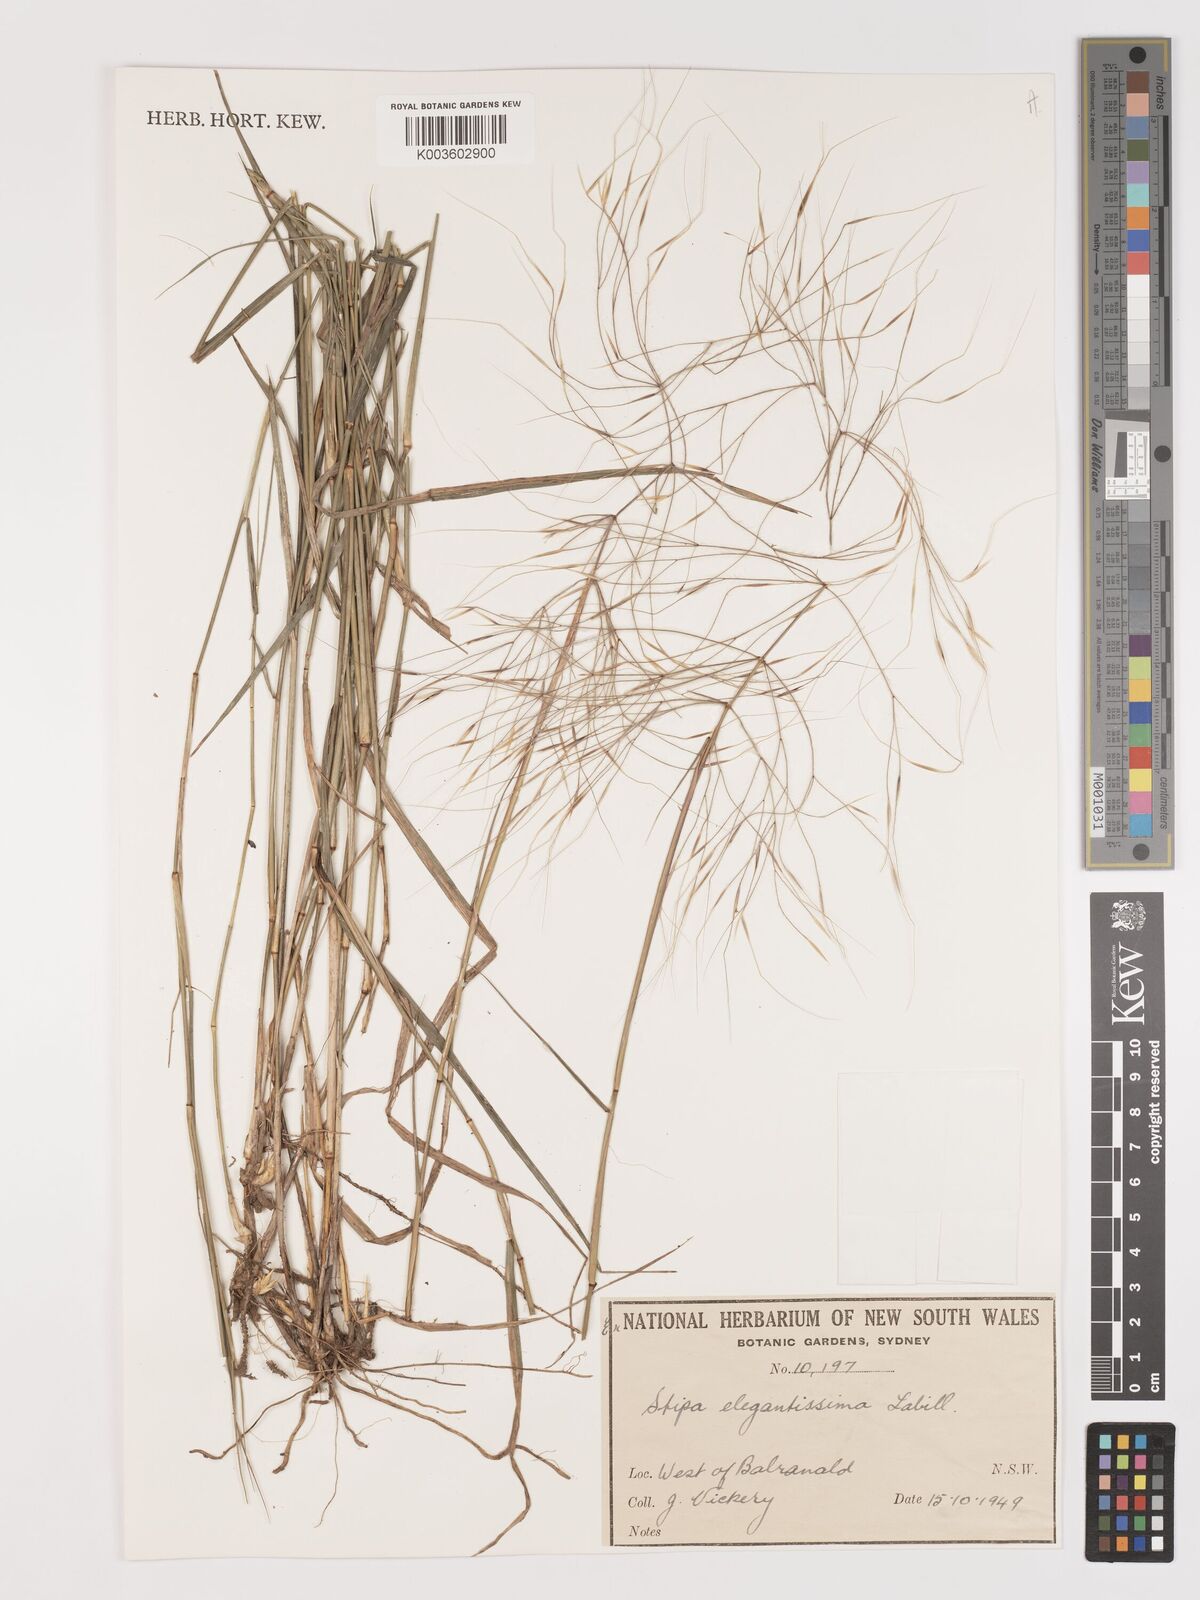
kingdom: Plantae
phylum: Tracheophyta
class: Liliopsida
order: Poales
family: Poaceae
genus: Austrostipa
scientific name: Austrostipa elegantissima
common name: Feather spear grass
